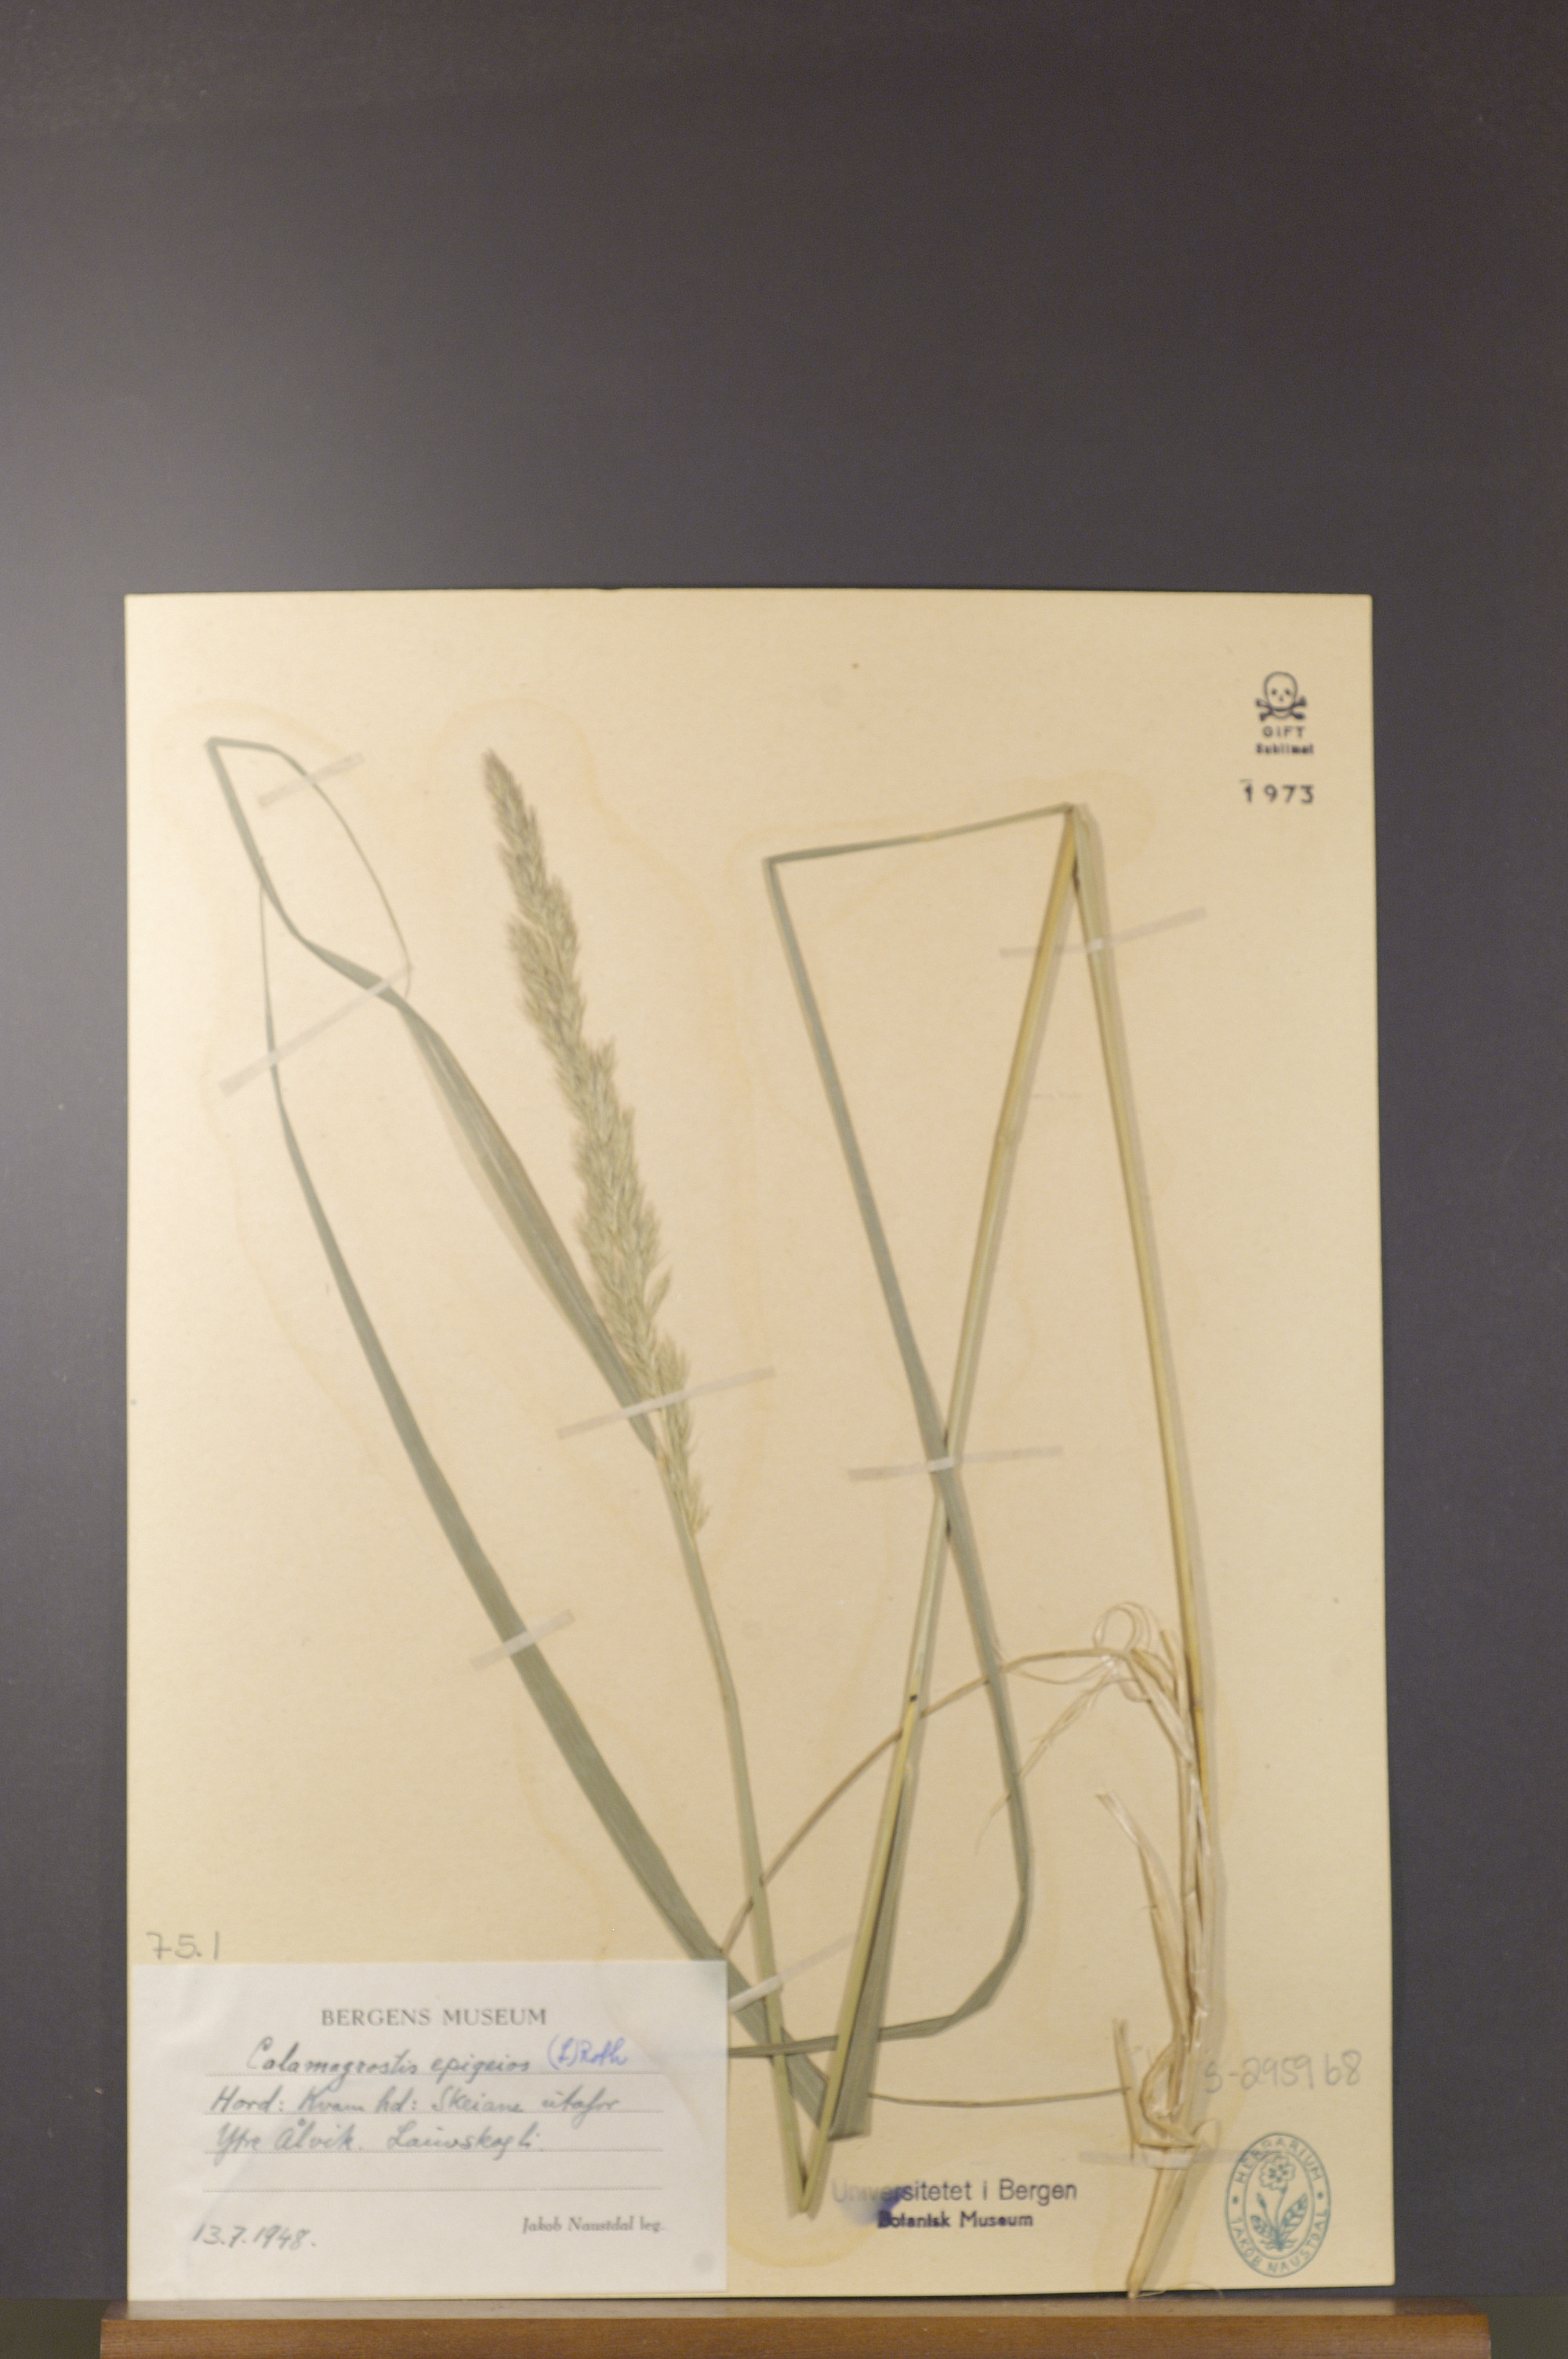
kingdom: Plantae
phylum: Tracheophyta
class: Liliopsida
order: Poales
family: Poaceae
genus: Calamagrostis
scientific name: Calamagrostis epigejos
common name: Wood small-reed
